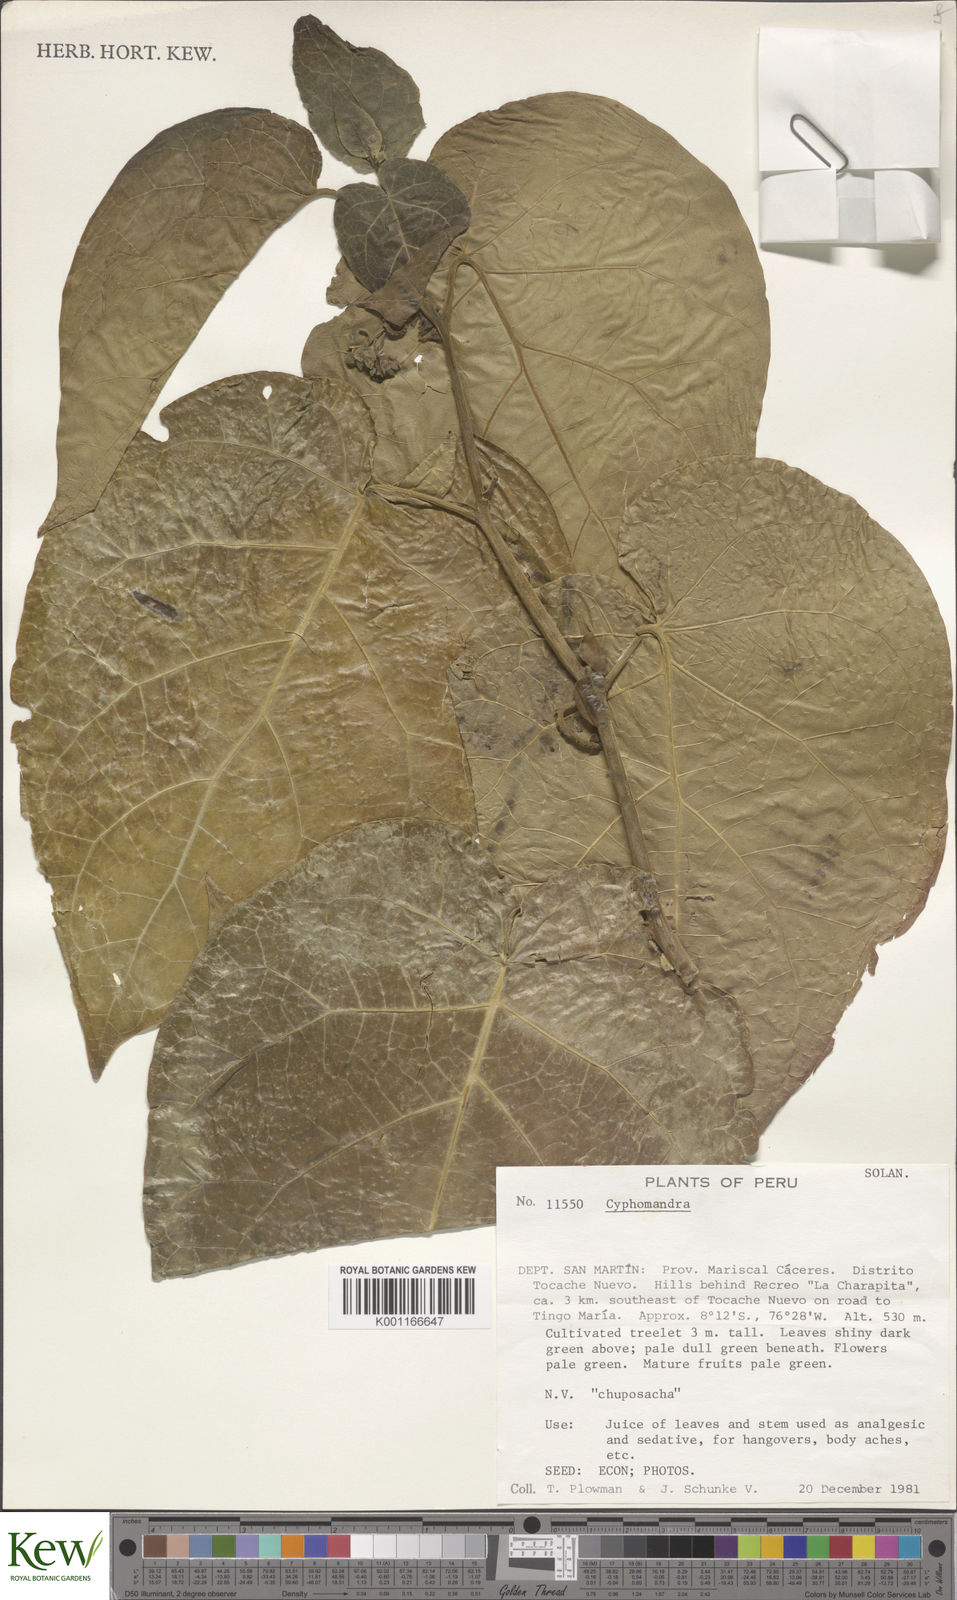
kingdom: Plantae
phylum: Tracheophyta
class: Magnoliopsida
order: Solanales
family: Solanaceae
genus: Solanum
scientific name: Solanum
